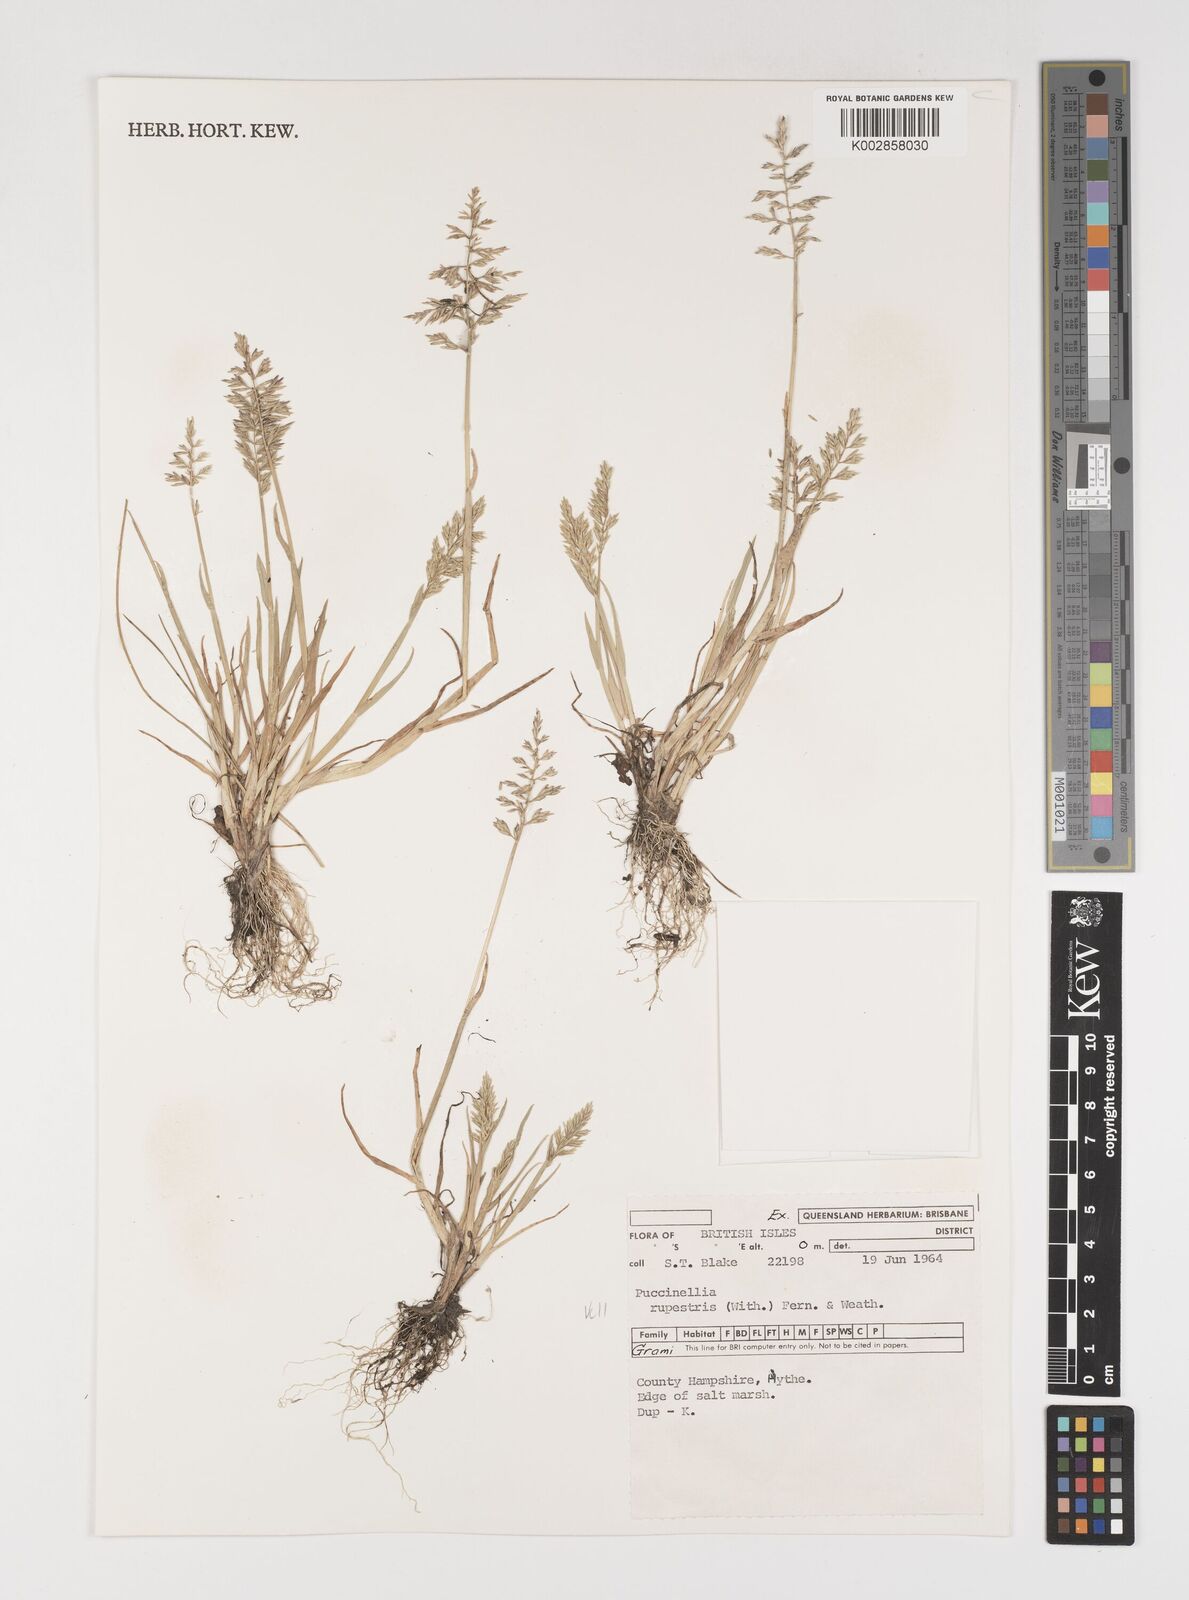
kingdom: Plantae
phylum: Tracheophyta
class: Liliopsida
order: Poales
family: Poaceae
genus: Puccinellia
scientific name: Puccinellia rupestris
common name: Stiff saltmarsh-grass
